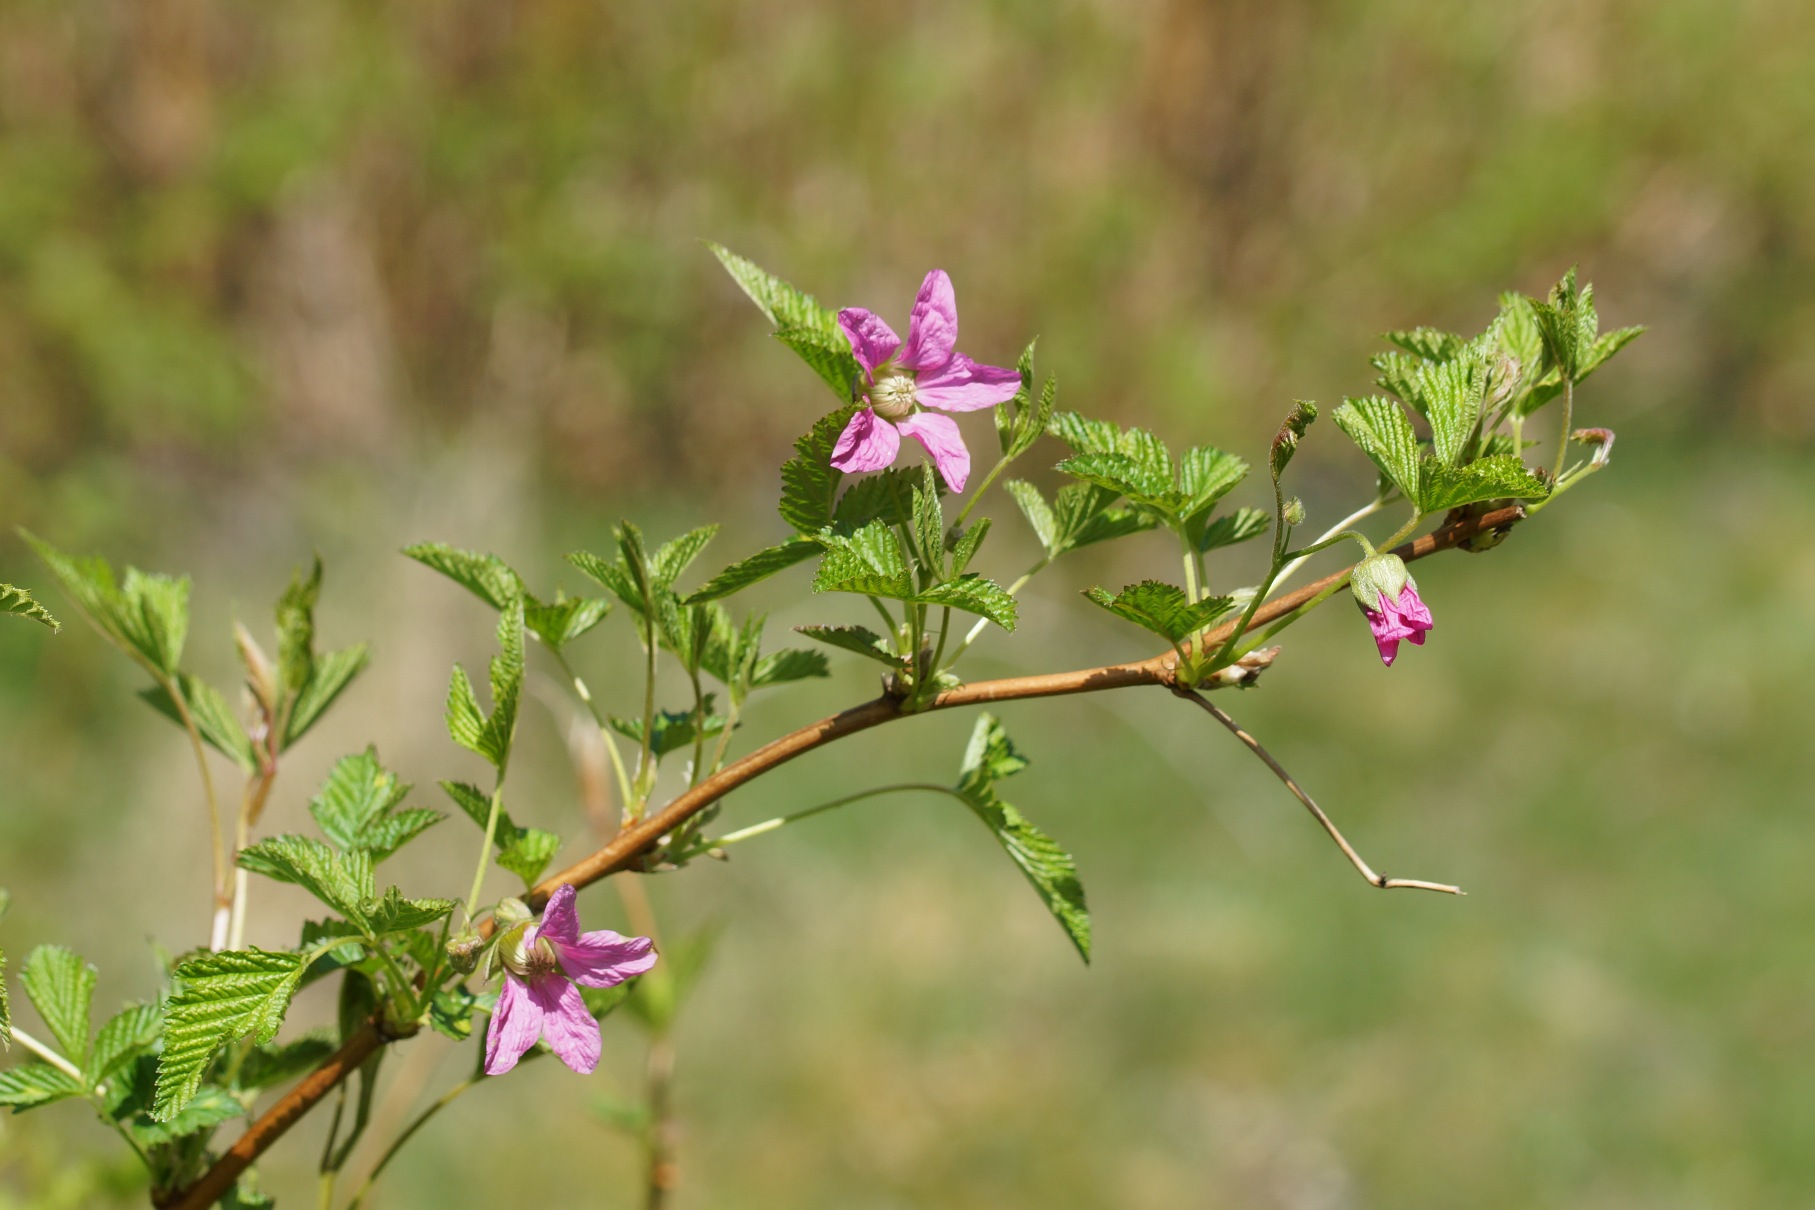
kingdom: Plantae
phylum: Tracheophyta
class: Magnoliopsida
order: Rosales
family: Rosaceae
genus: Rubus
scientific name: Rubus spectabilis
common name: Laksebær
